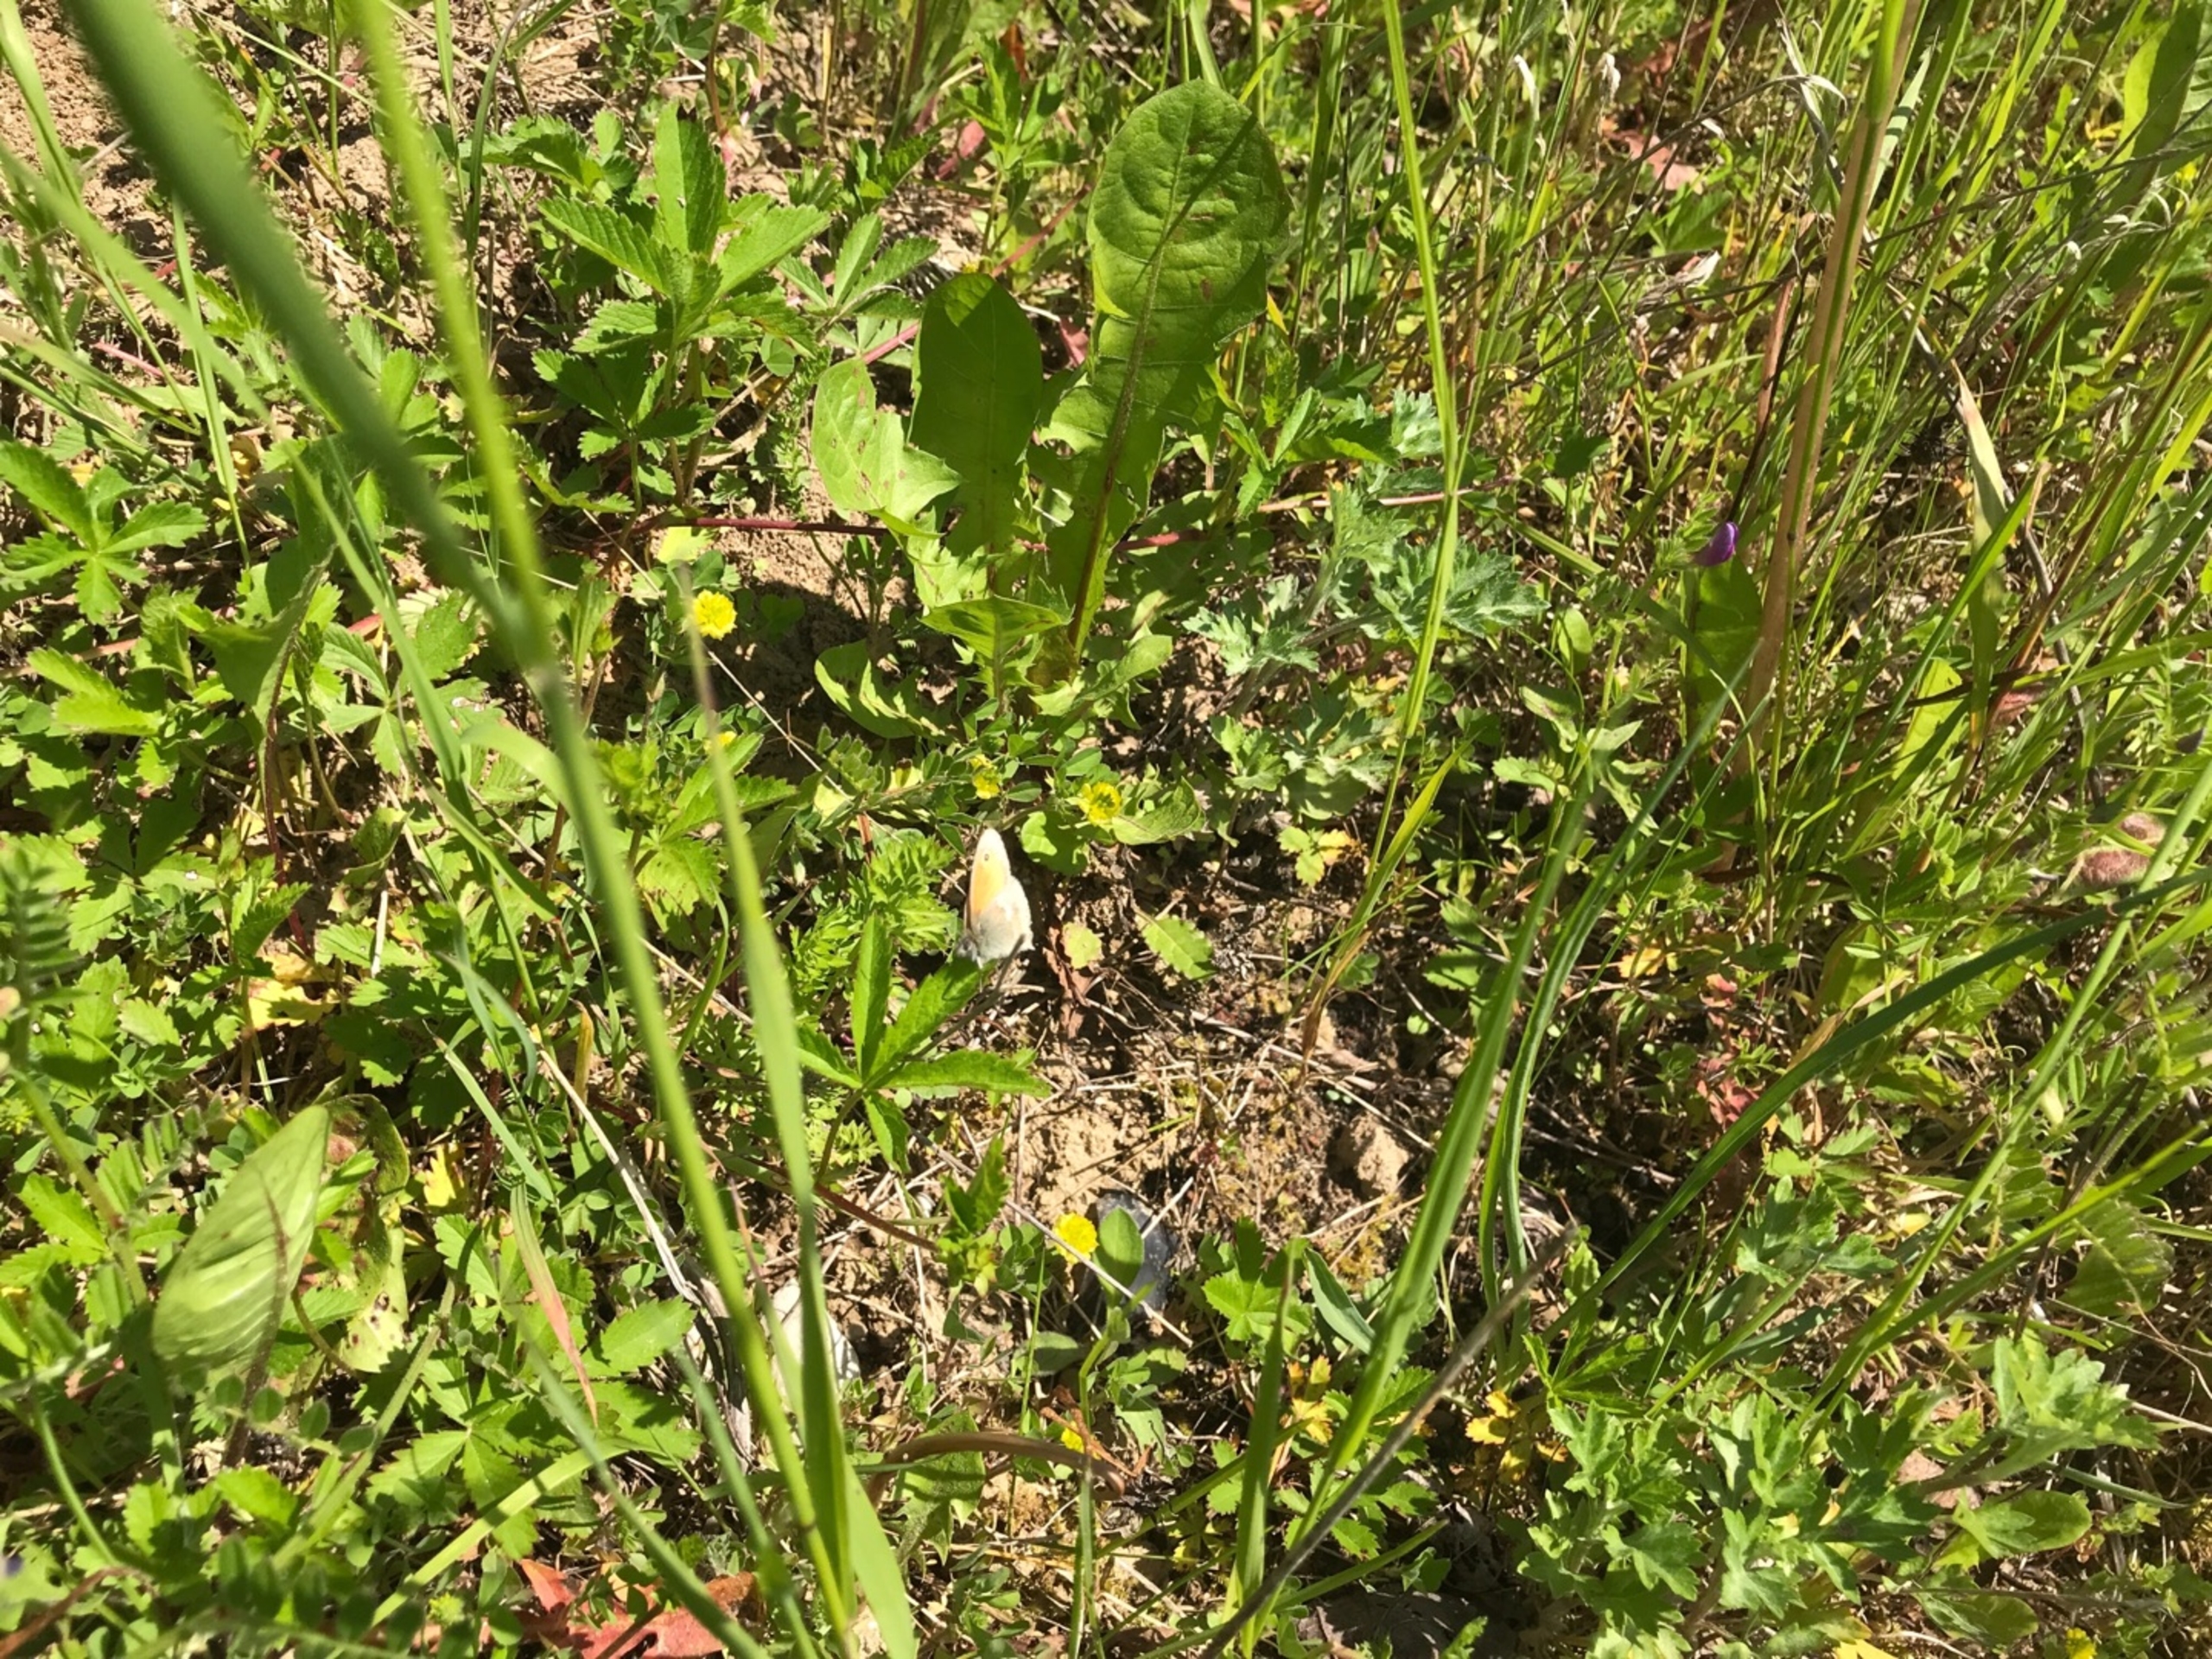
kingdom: Animalia
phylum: Arthropoda
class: Insecta
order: Lepidoptera
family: Nymphalidae
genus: Coenonympha
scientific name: Coenonympha pamphilus
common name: Okkergul randøje
